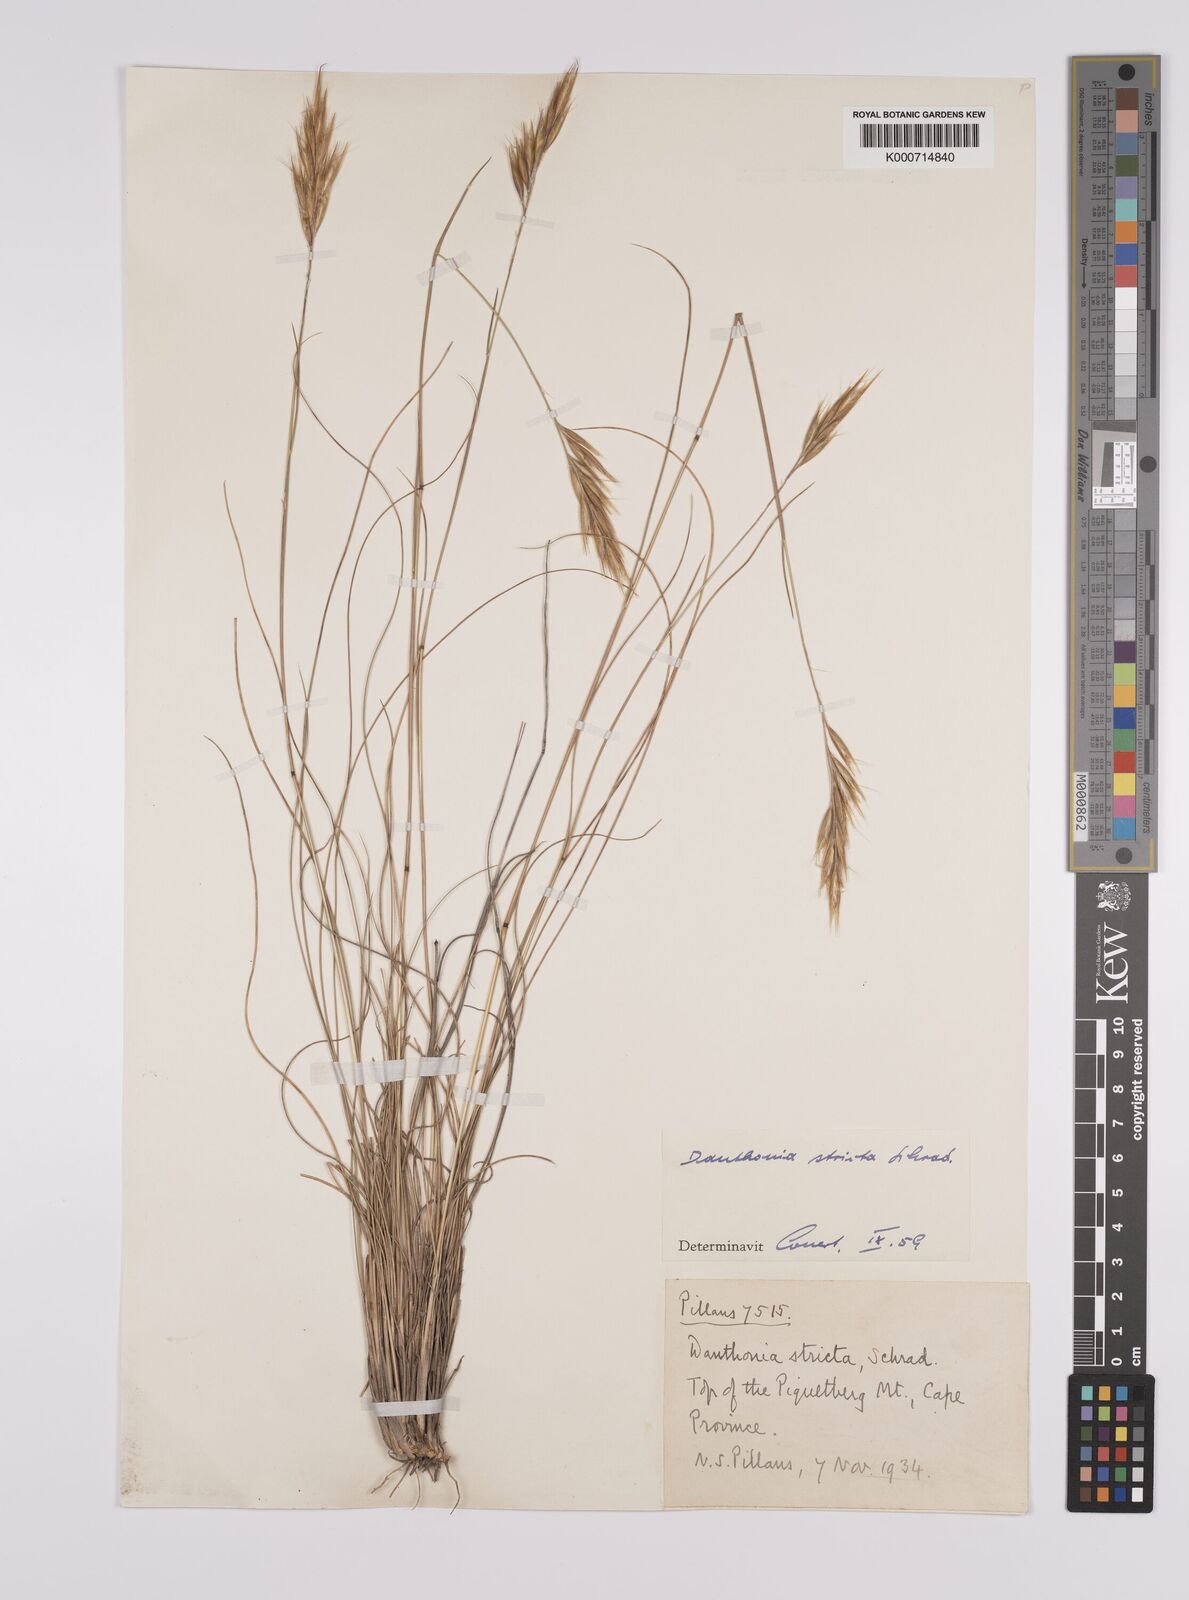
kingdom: Plantae
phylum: Tracheophyta
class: Liliopsida
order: Poales
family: Poaceae
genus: Rytidosperma
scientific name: Rytidosperma
